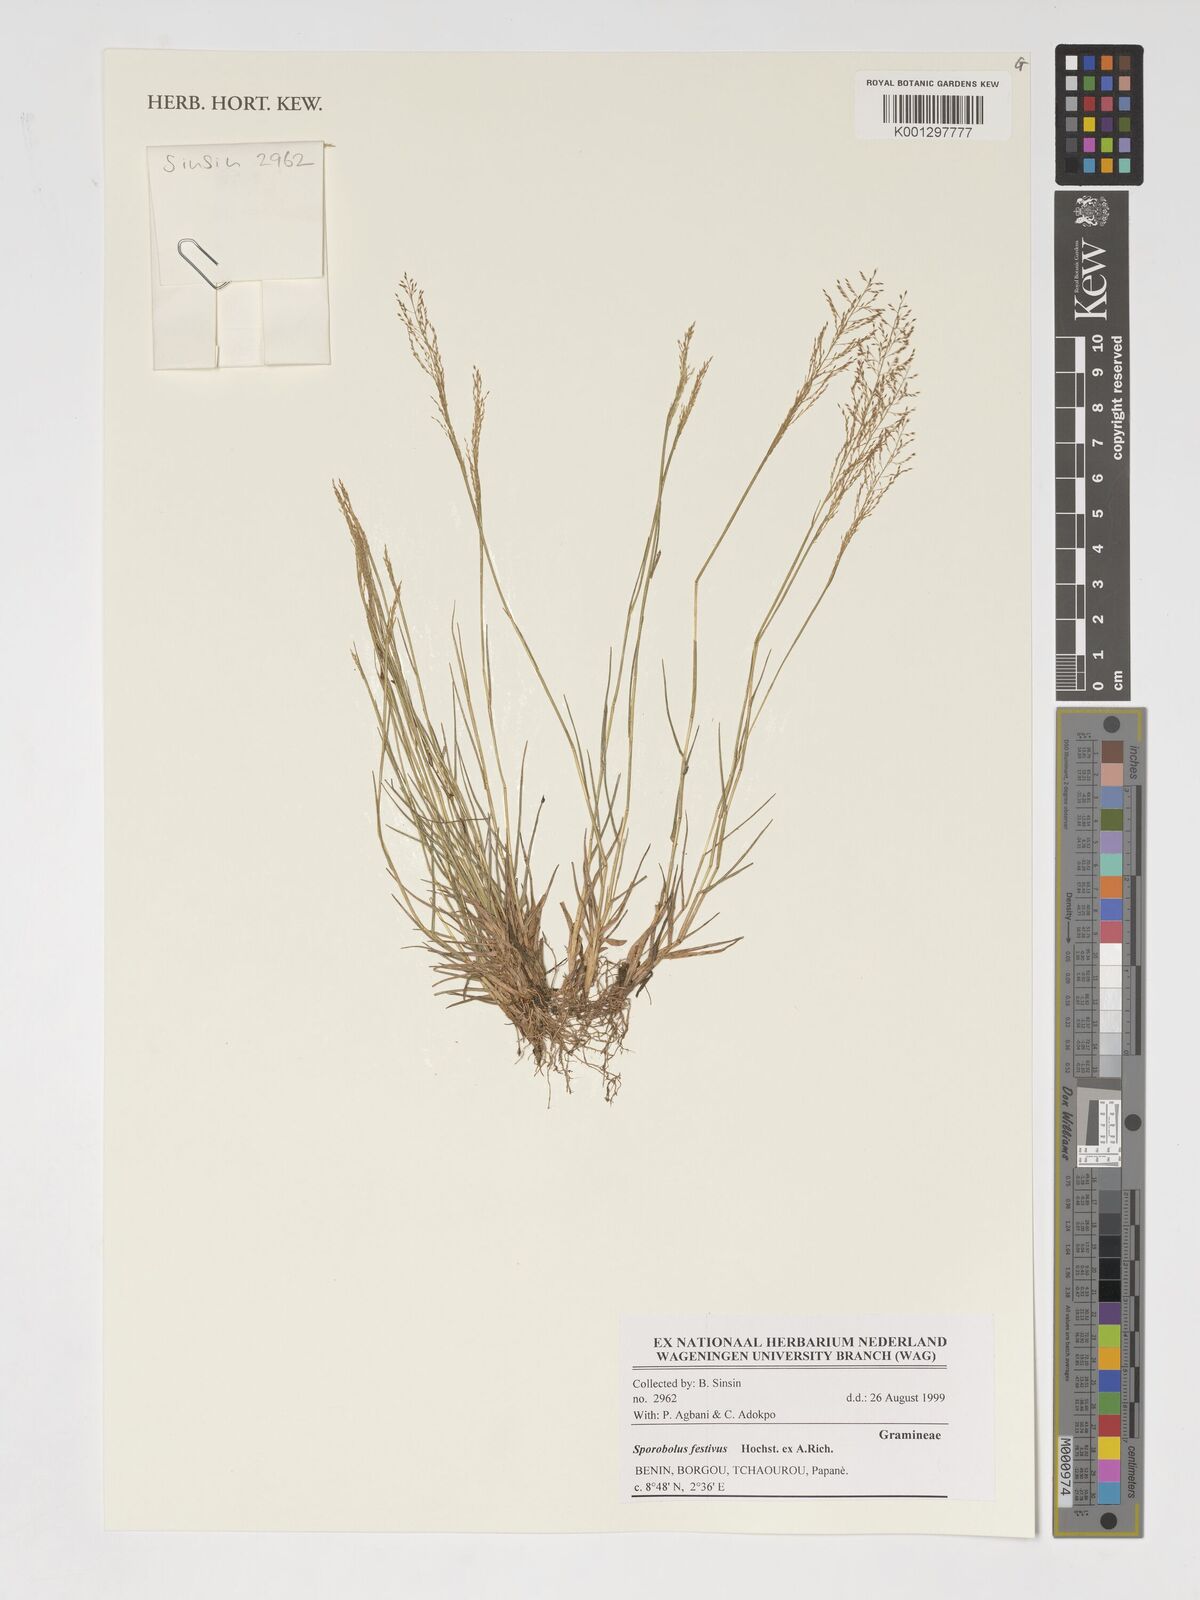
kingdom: Plantae
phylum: Tracheophyta
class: Liliopsida
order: Poales
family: Poaceae
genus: Sporobolus
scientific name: Sporobolus festivus
